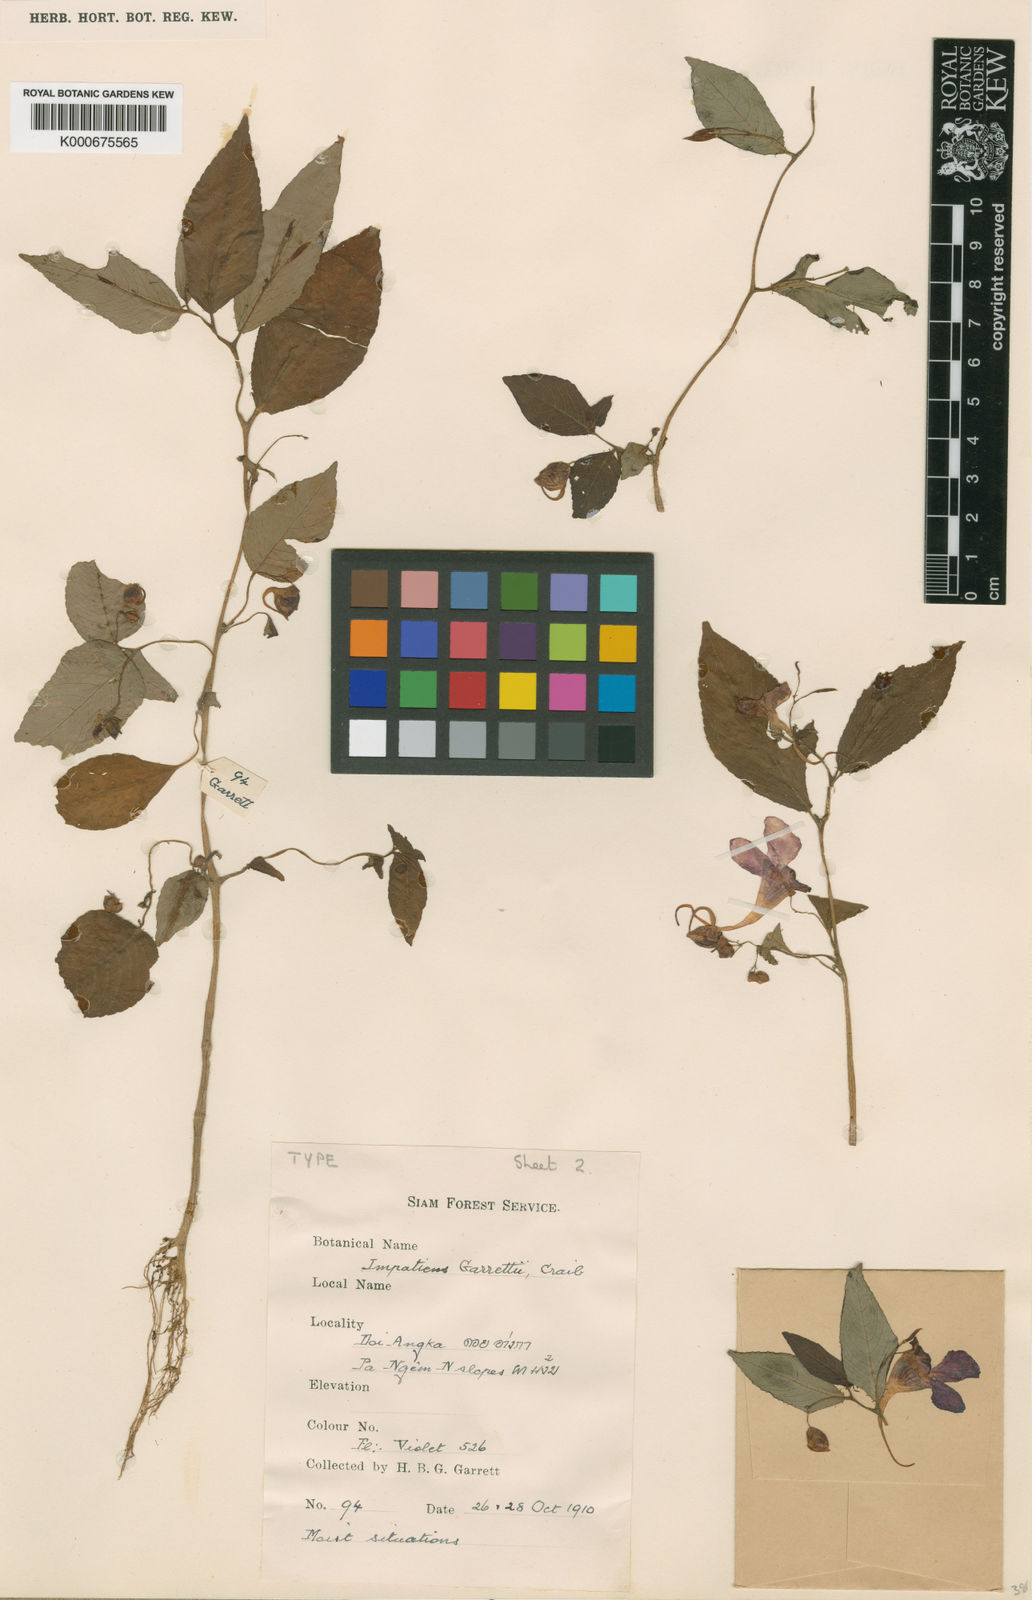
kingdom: Plantae
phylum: Tracheophyta
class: Magnoliopsida
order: Ericales
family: Balsaminaceae
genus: Impatiens
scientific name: Impatiens porrecta
